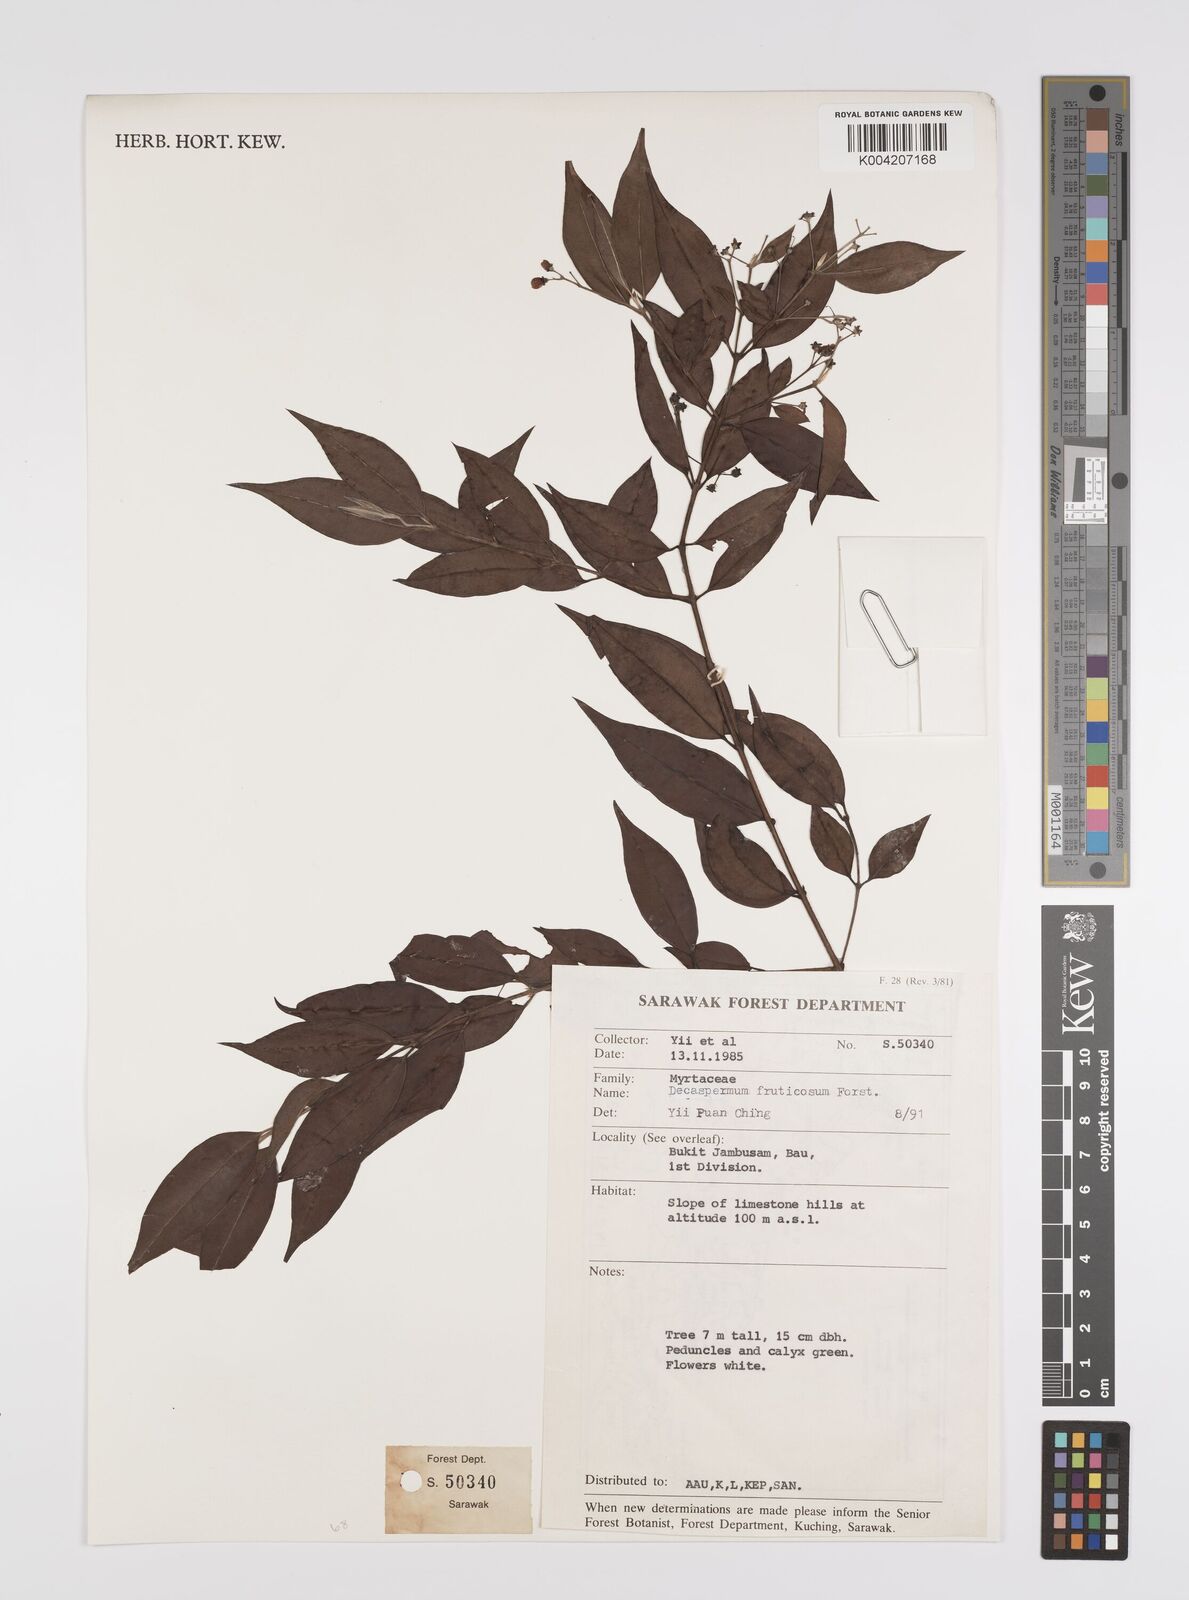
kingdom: Plantae
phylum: Tracheophyta
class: Magnoliopsida
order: Myrtales
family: Myrtaceae
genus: Decaspermum
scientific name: Decaspermum fruticosum
